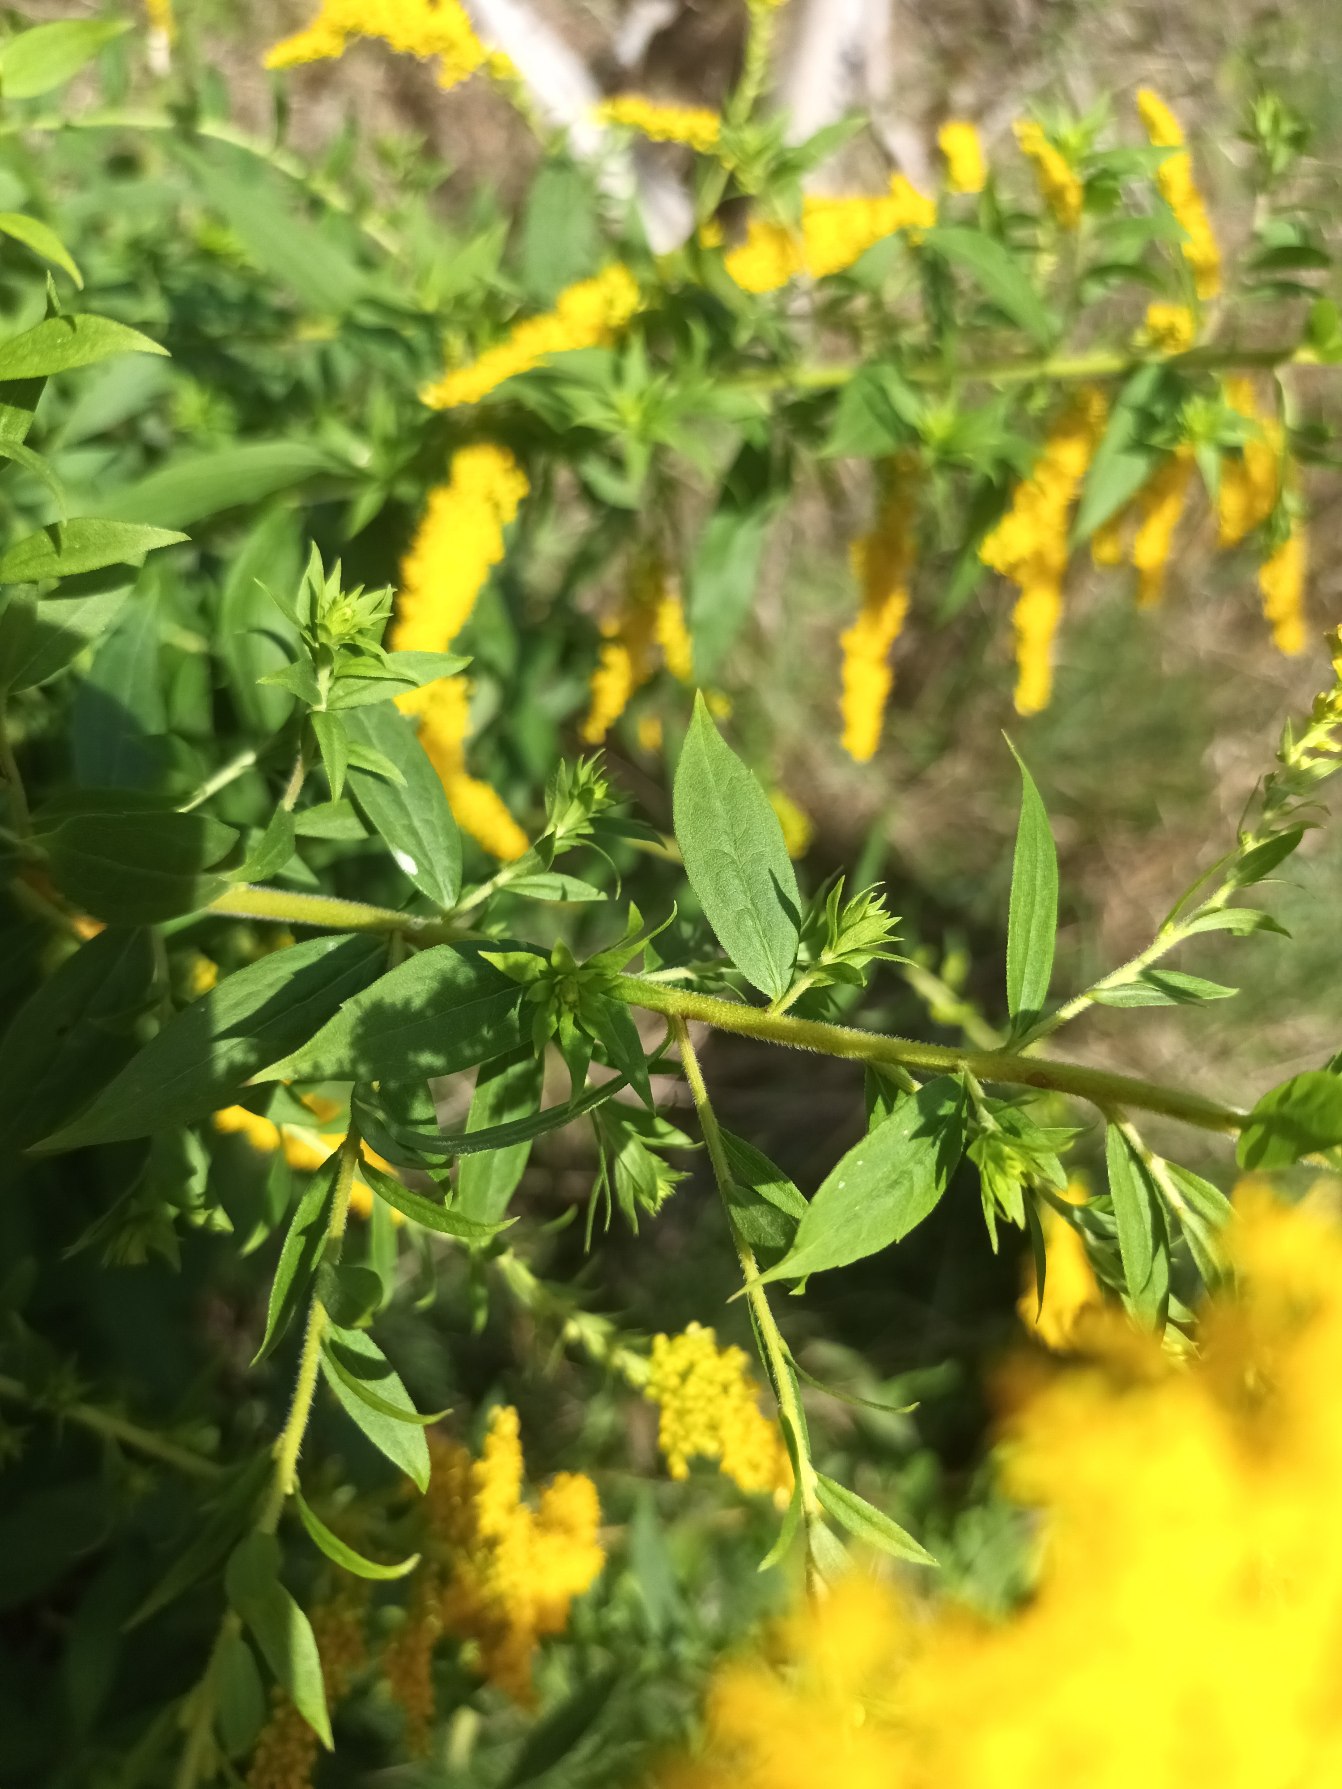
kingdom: Plantae
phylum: Tracheophyta
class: Magnoliopsida
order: Asterales
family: Asteraceae
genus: Solidago
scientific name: Solidago canadensis
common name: Kanadisk gyldenris
